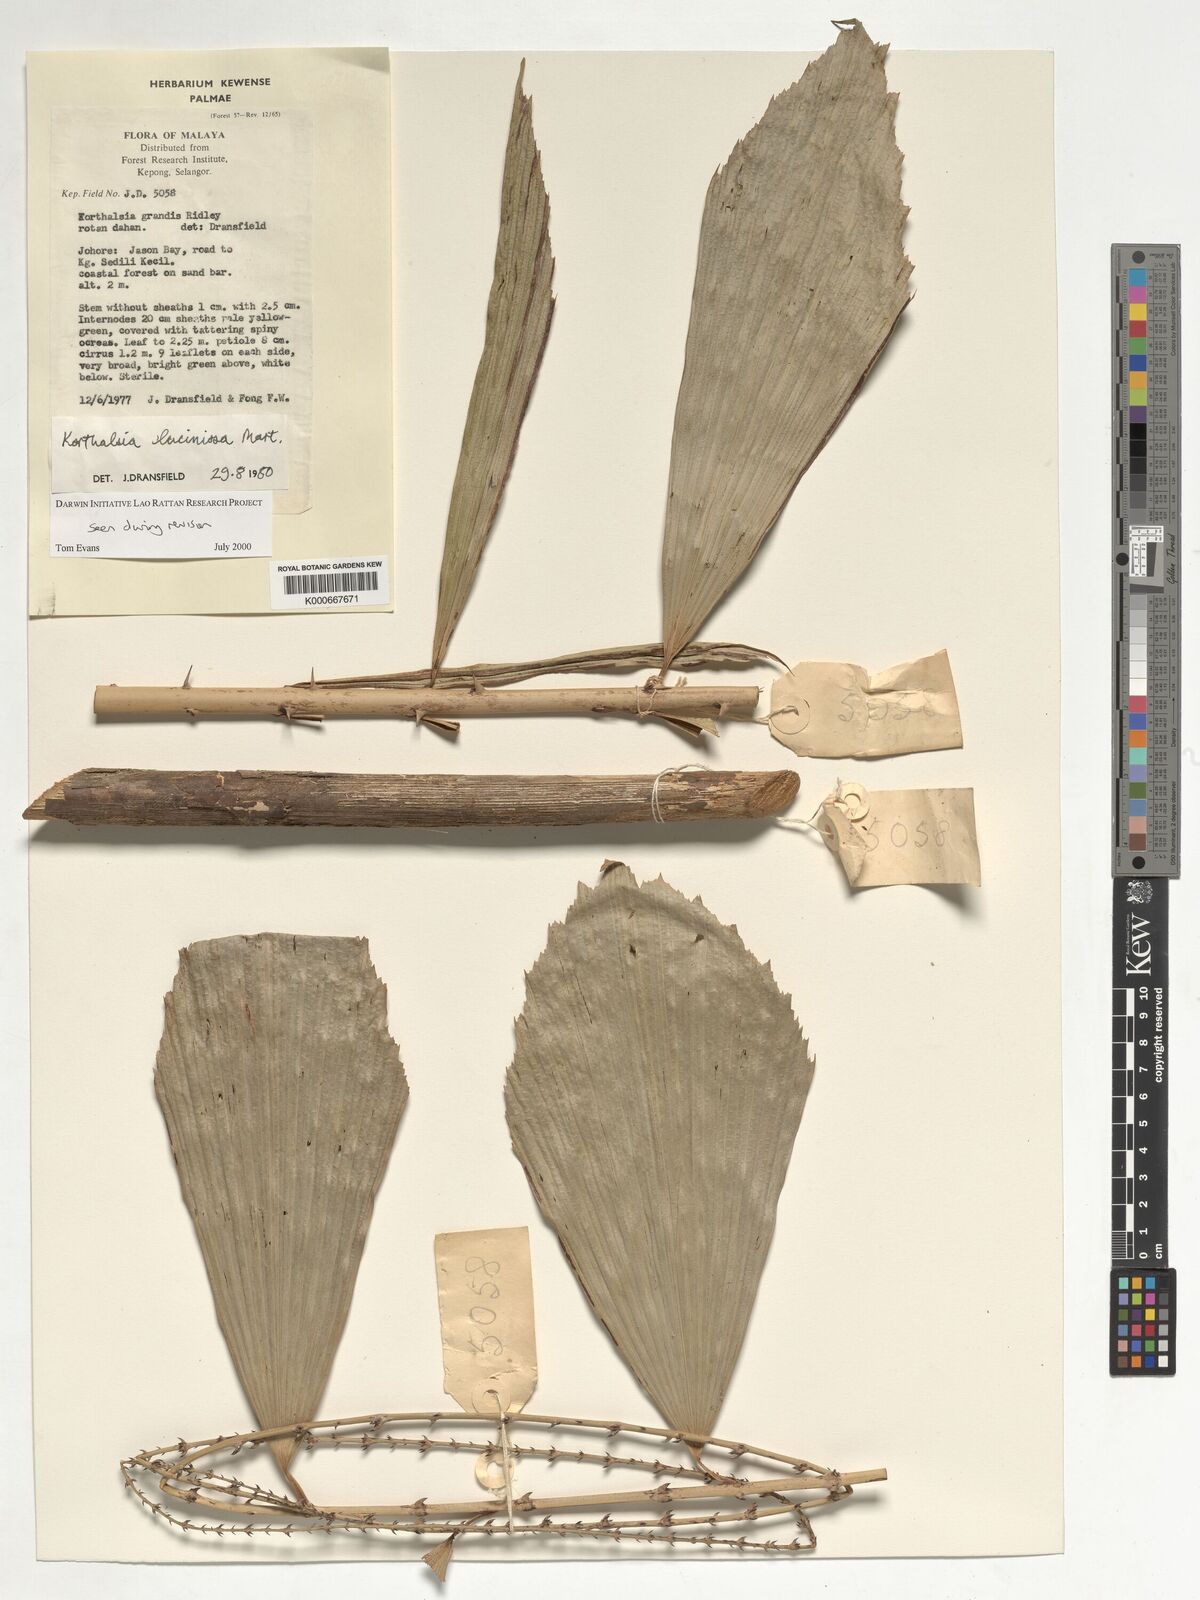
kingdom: Plantae
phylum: Tracheophyta
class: Liliopsida
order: Arecales
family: Arecaceae
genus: Korthalsia
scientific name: Korthalsia laciniosa
